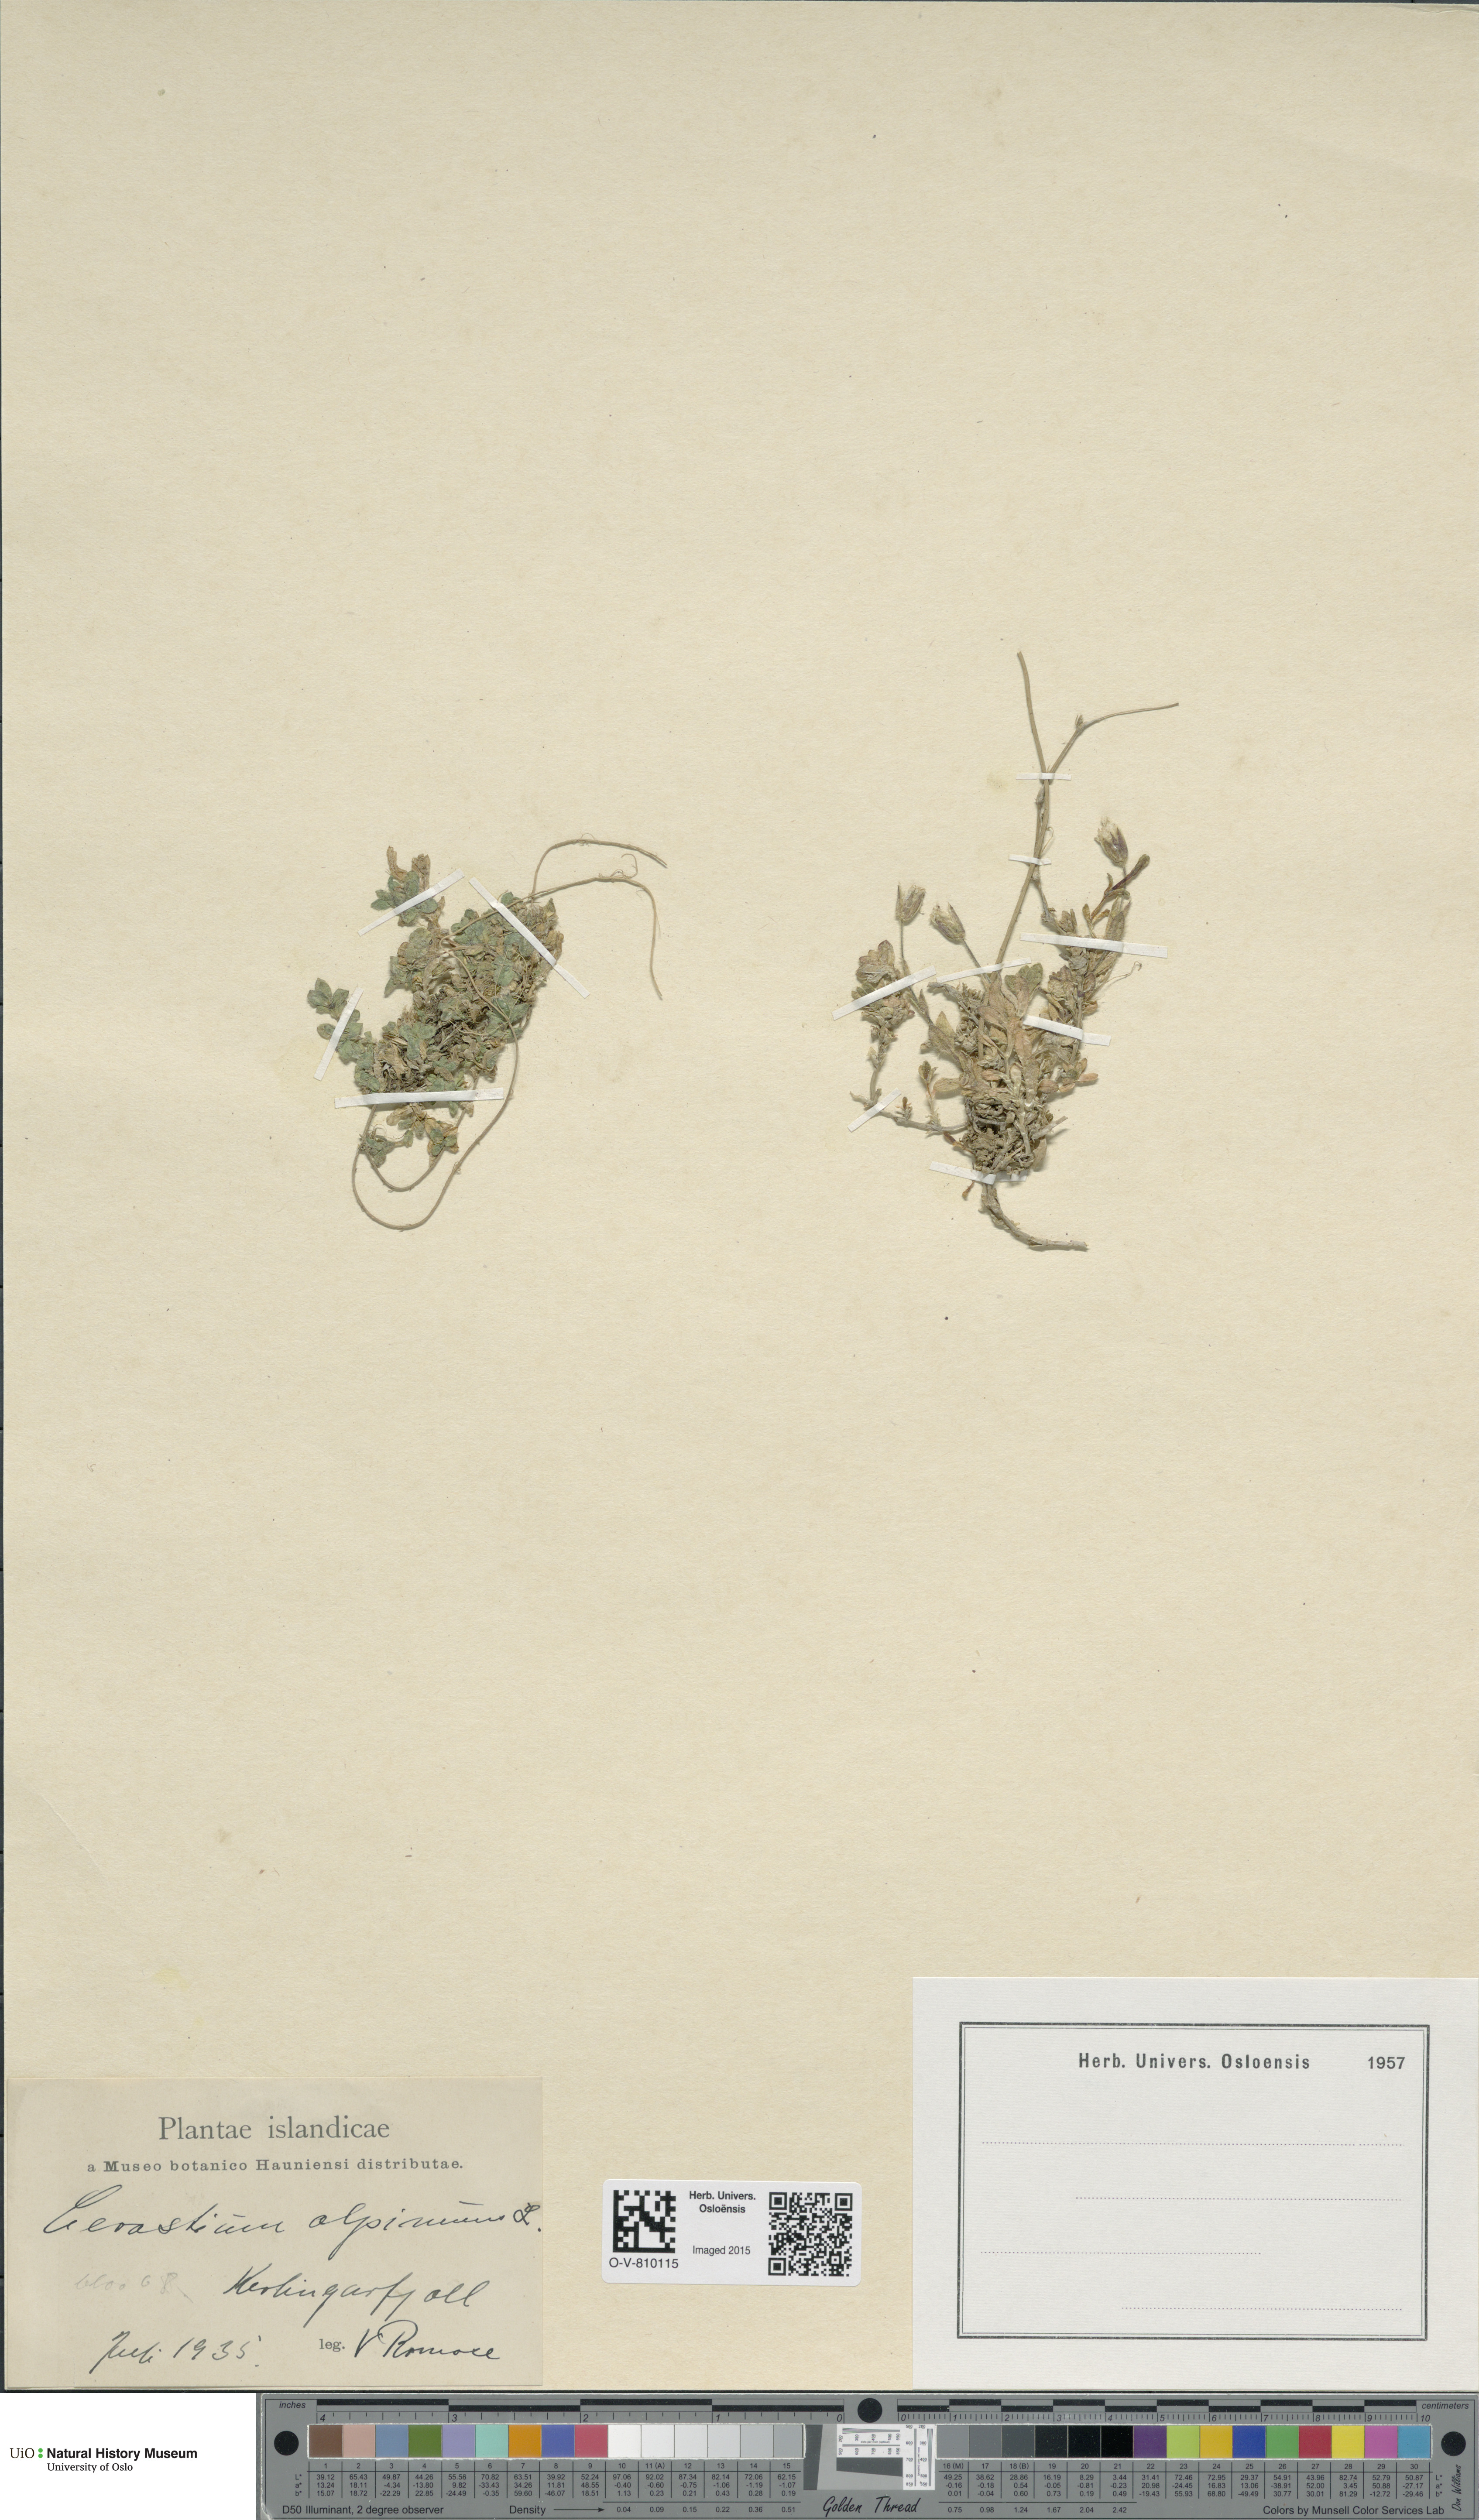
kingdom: Plantae
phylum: Tracheophyta
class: Magnoliopsida
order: Caryophyllales
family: Caryophyllaceae
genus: Cerastium
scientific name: Cerastium alpinum
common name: Alpine mouse-ear
